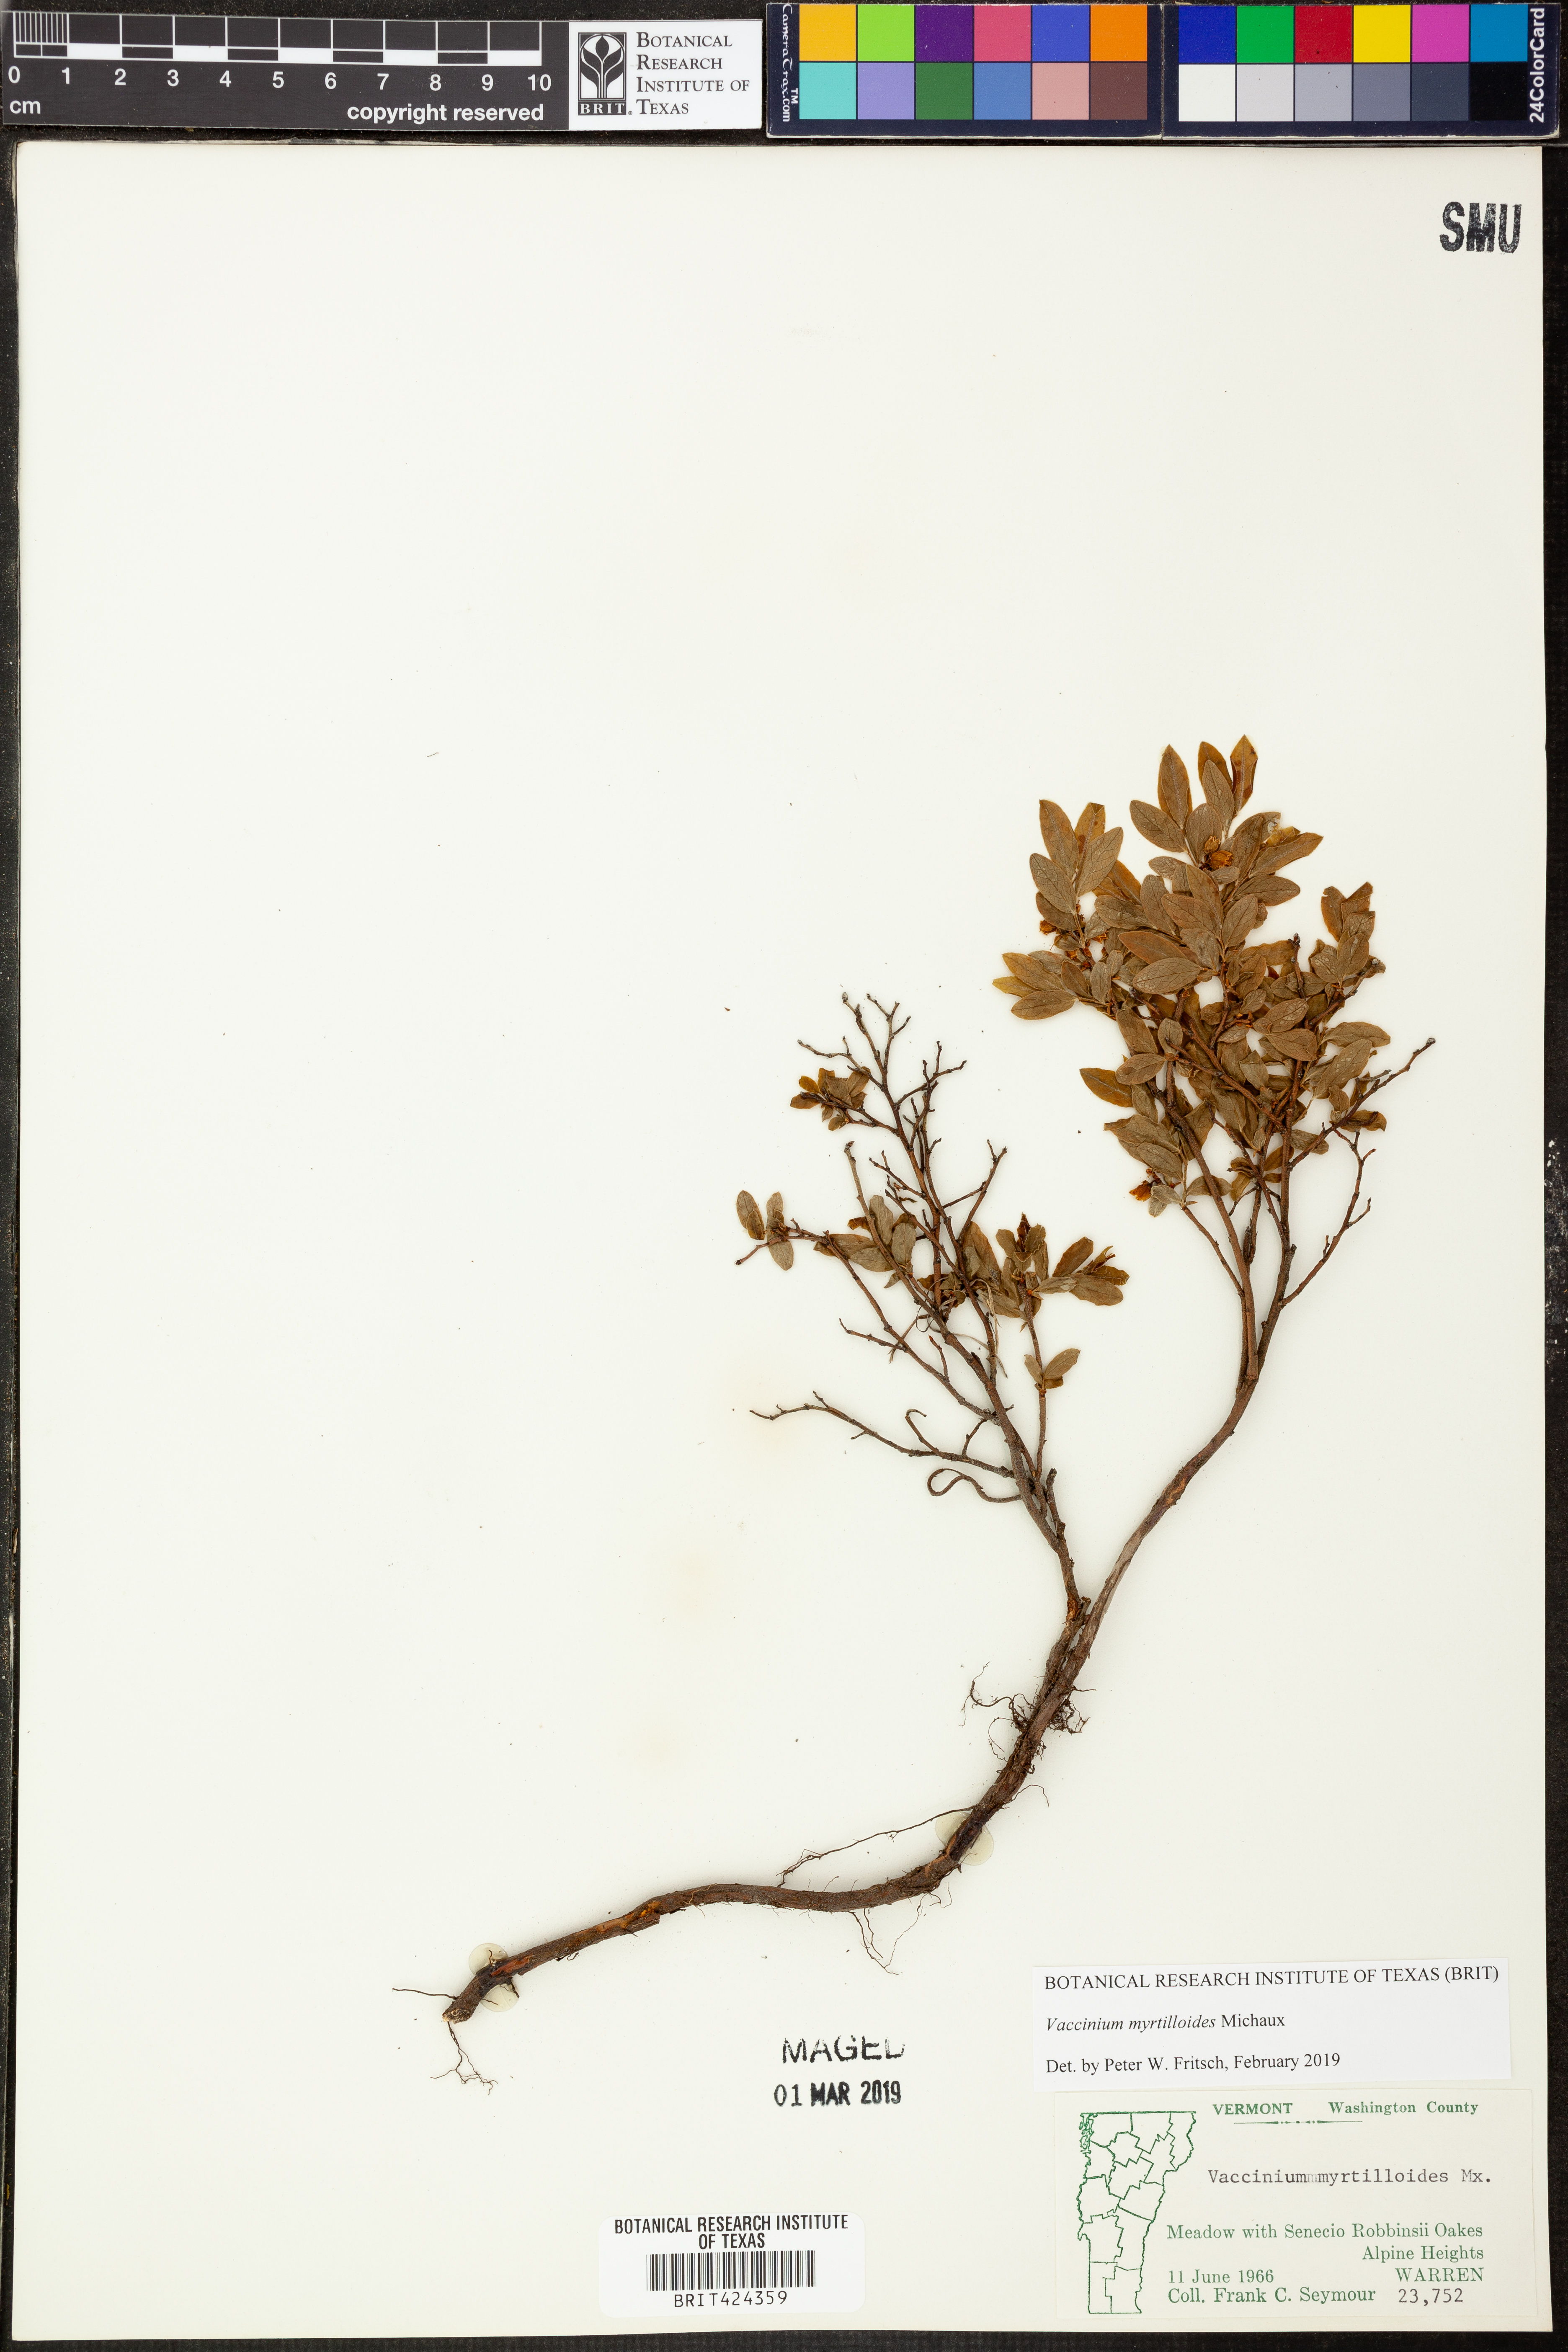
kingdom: Plantae
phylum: Tracheophyta
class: Magnoliopsida
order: Ericales
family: Ericaceae
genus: Vaccinium
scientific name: Vaccinium myrtilloides
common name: Canada blueberry
